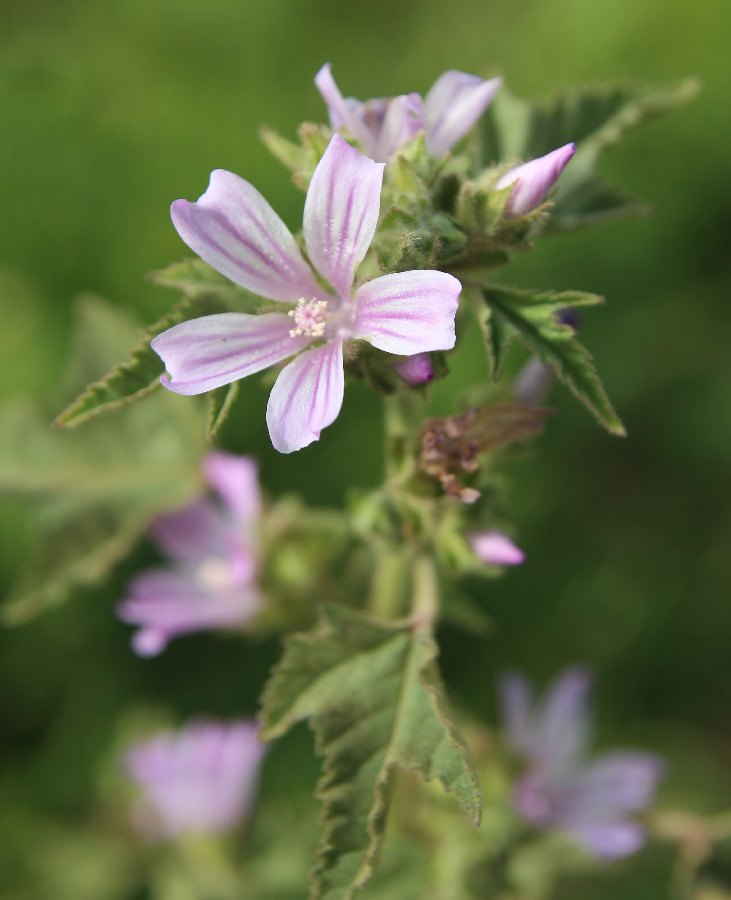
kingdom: Plantae
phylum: Tracheophyta
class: Magnoliopsida
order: Malvales
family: Malvaceae
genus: Malva
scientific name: Malva sylvestris
